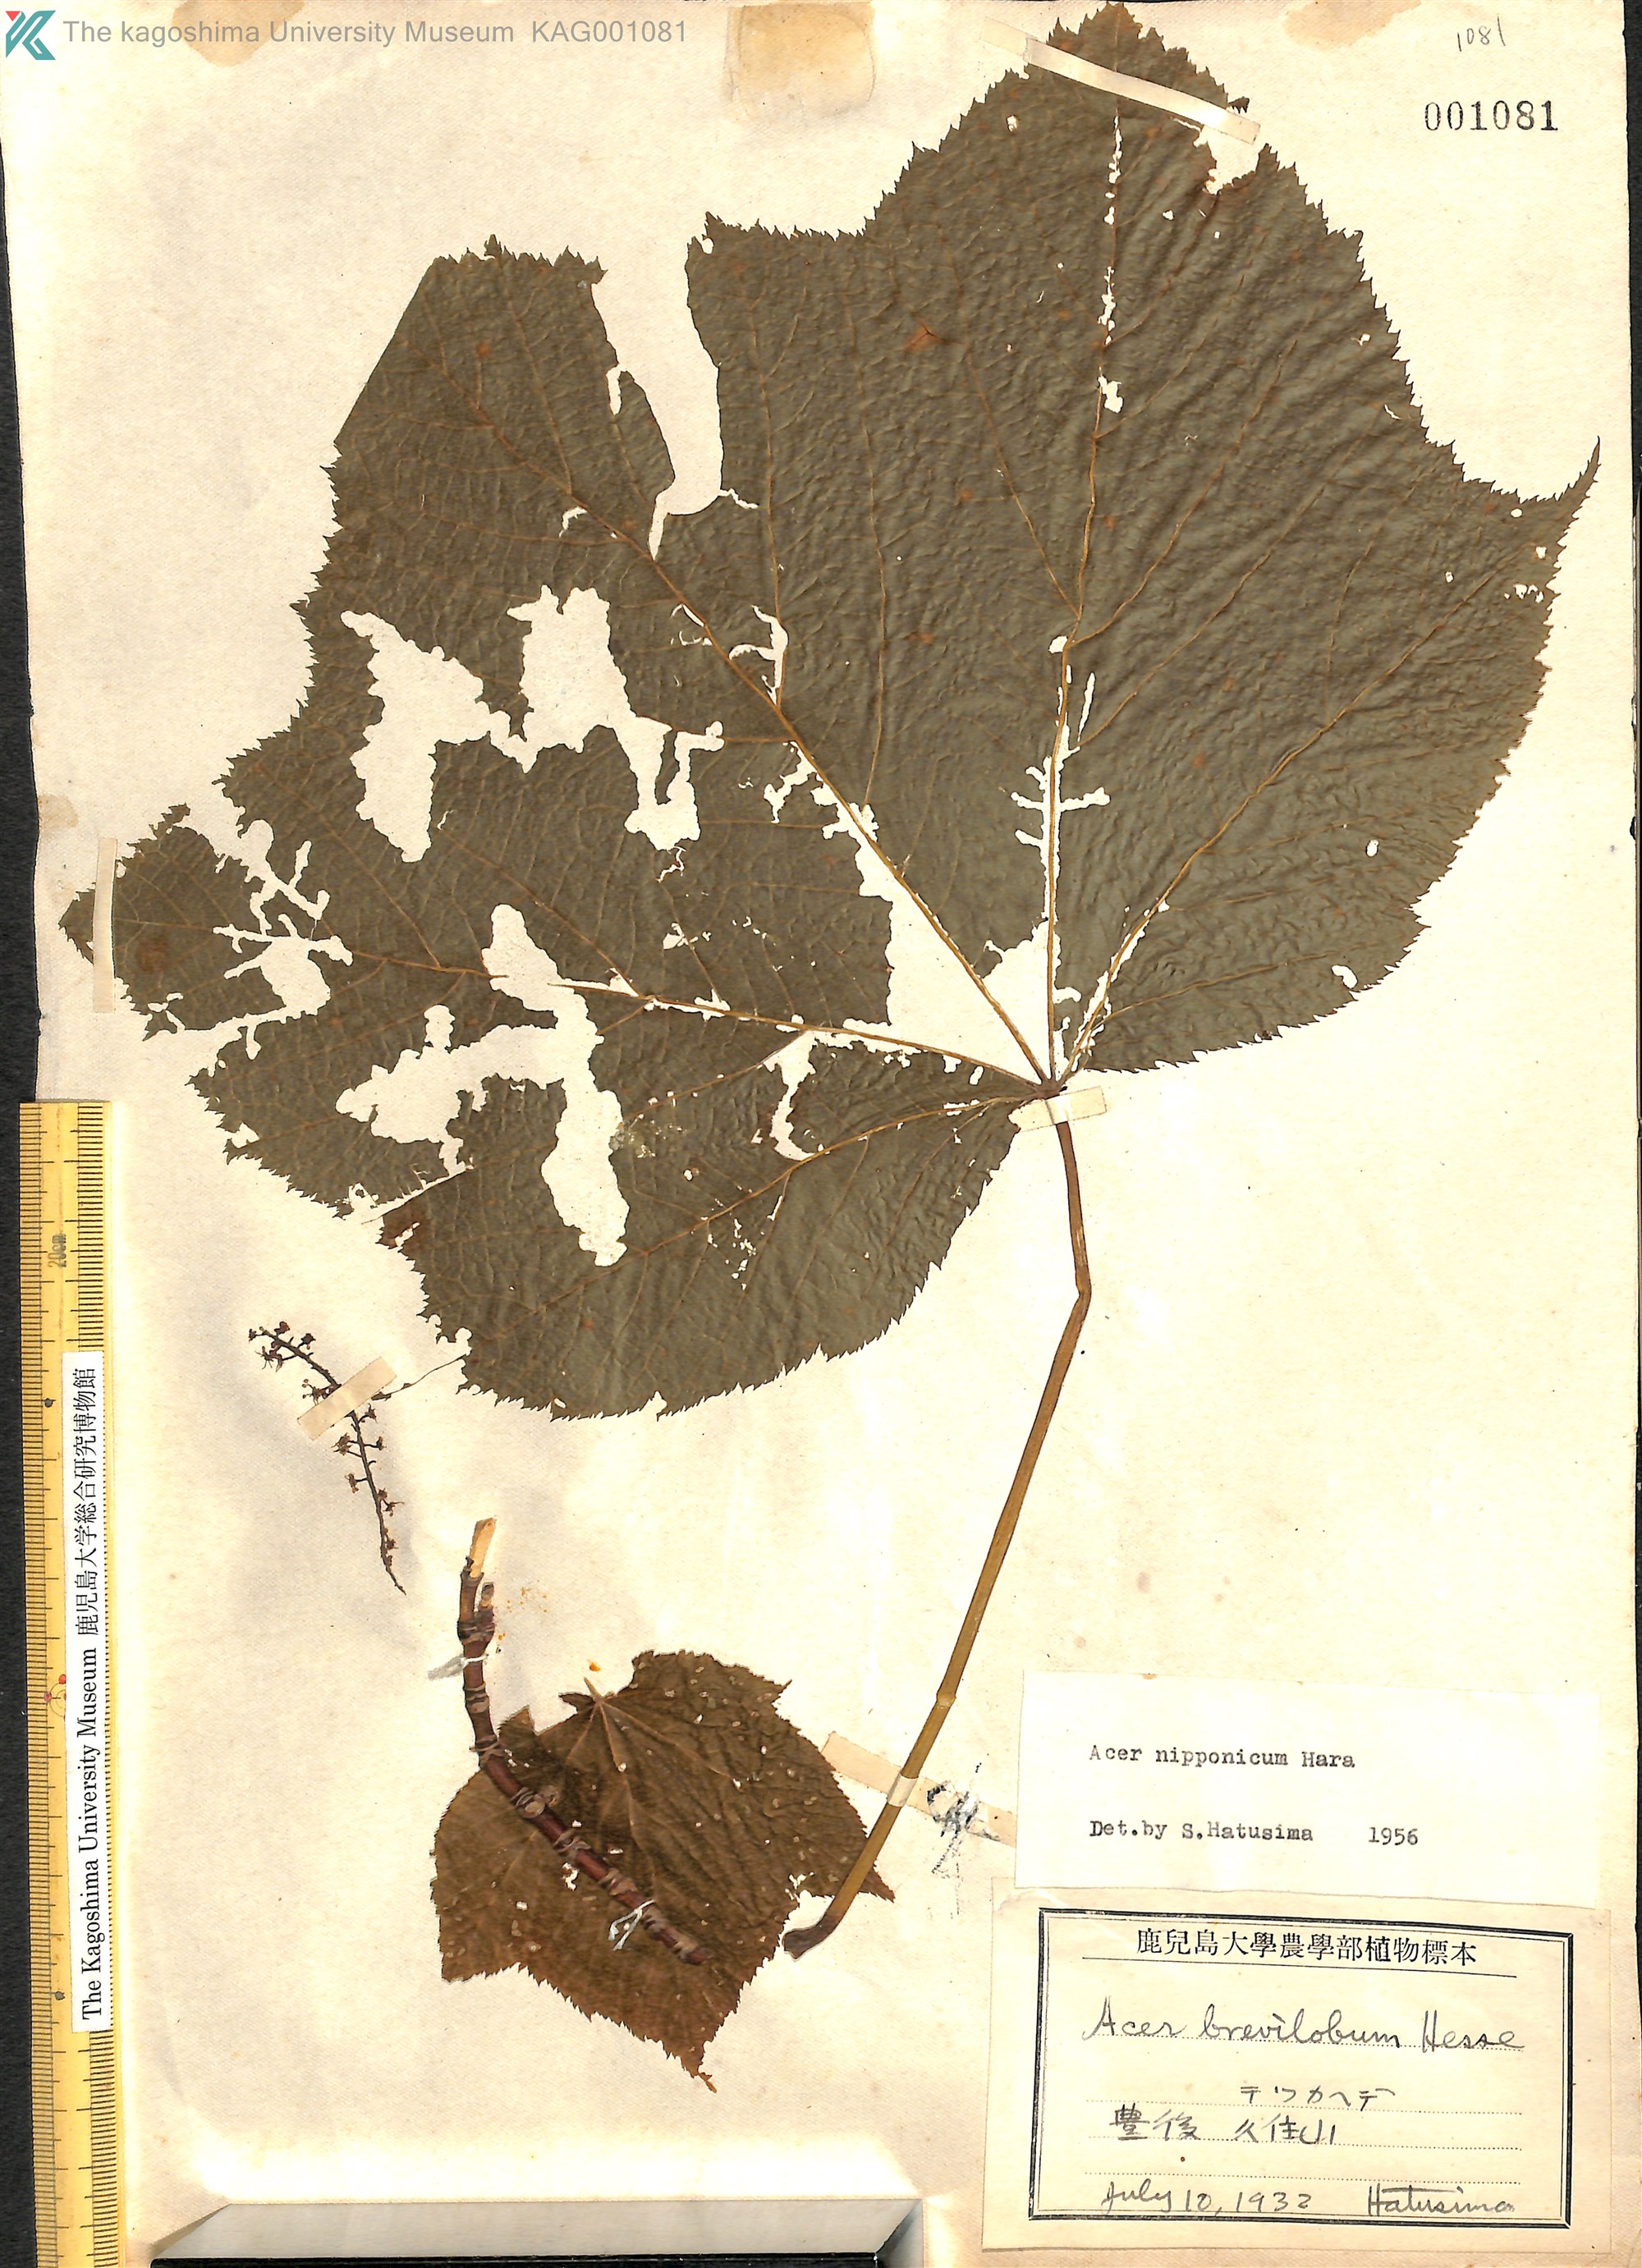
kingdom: Plantae
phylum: Tracheophyta
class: Magnoliopsida
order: Sapindales
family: Sapindaceae
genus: Acer
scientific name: Acer nipponicum
